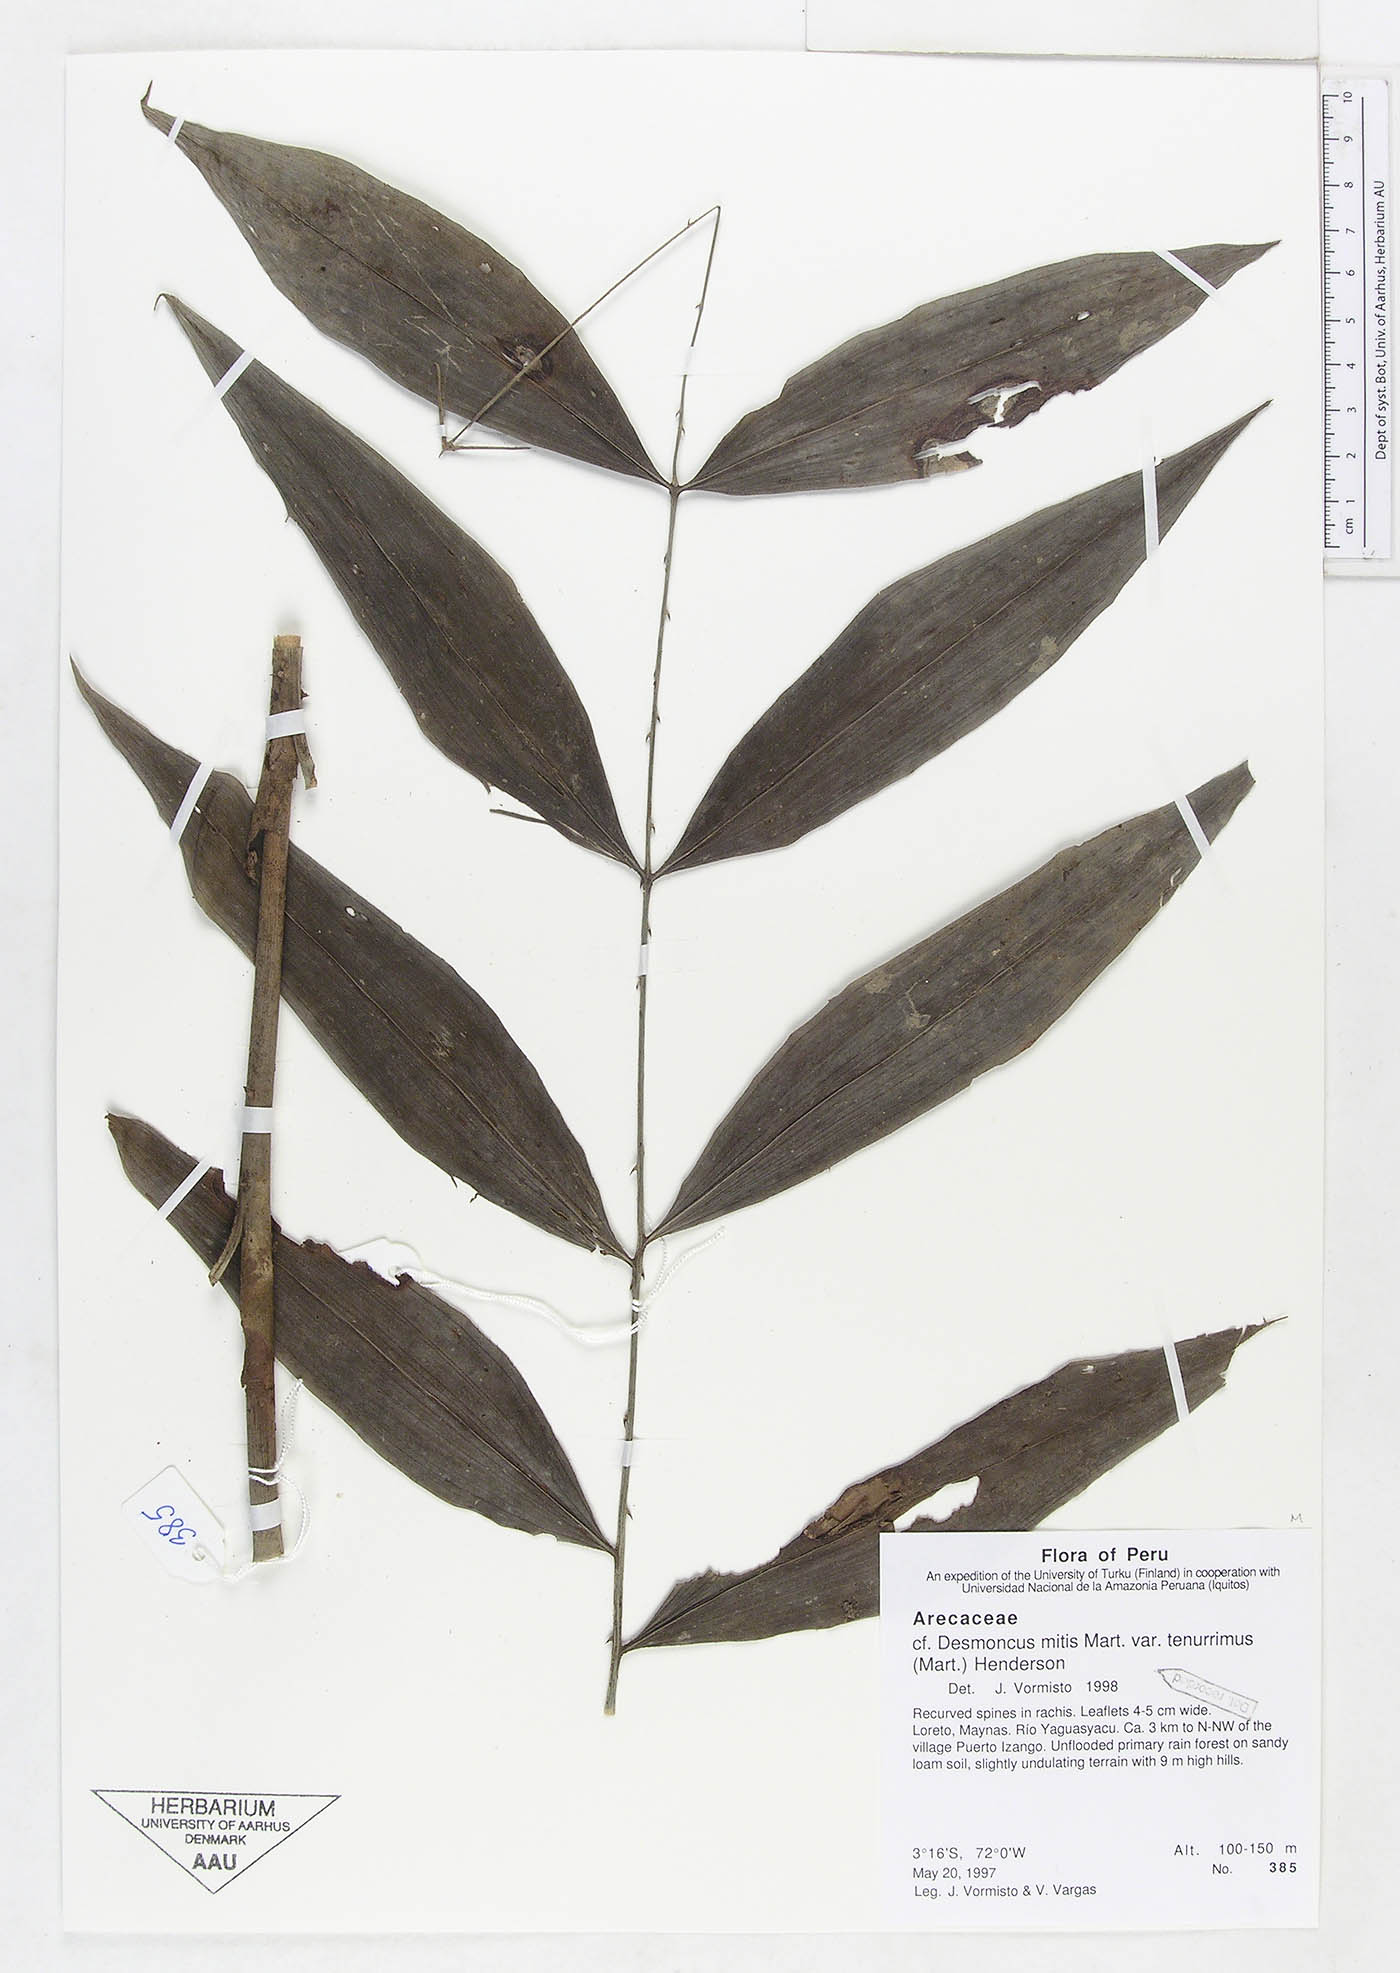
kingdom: Plantae
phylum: Tracheophyta
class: Liliopsida
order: Arecales
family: Arecaceae
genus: Desmoncus
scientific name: Desmoncus vacivus
